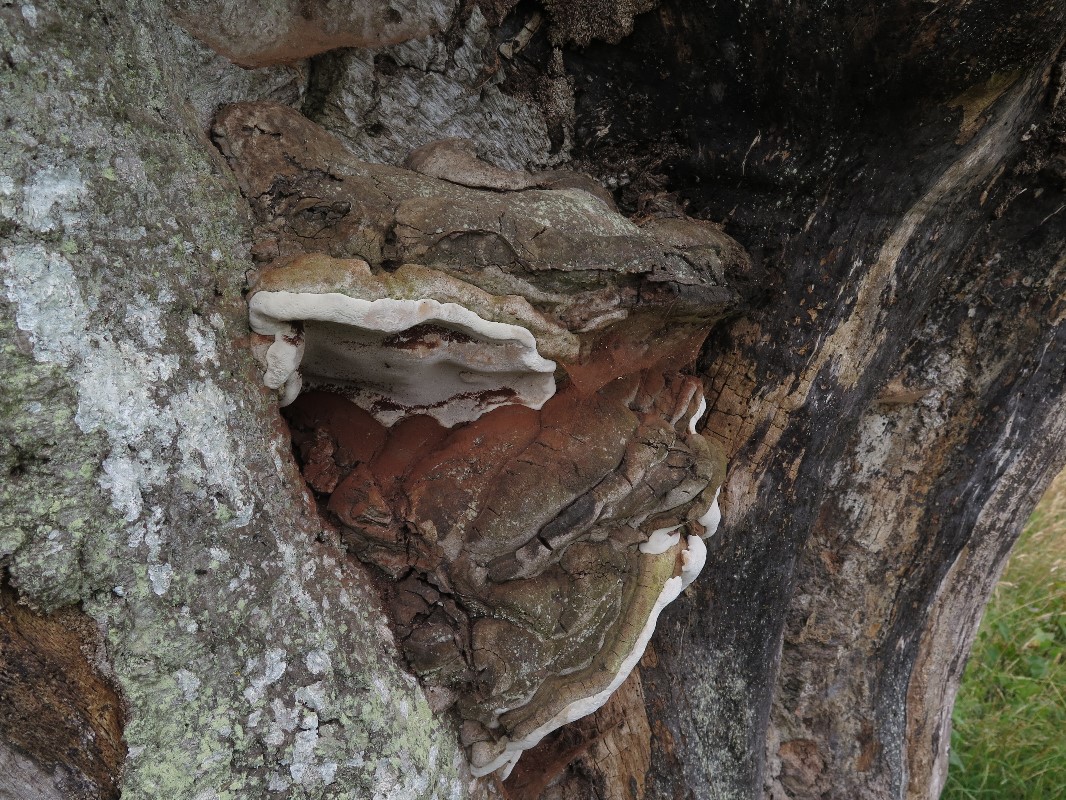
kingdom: Fungi
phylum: Basidiomycota
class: Agaricomycetes
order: Polyporales
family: Polyporaceae
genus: Ganoderma
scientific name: Ganoderma pfeifferi
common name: kobberrød lakporesvamp
